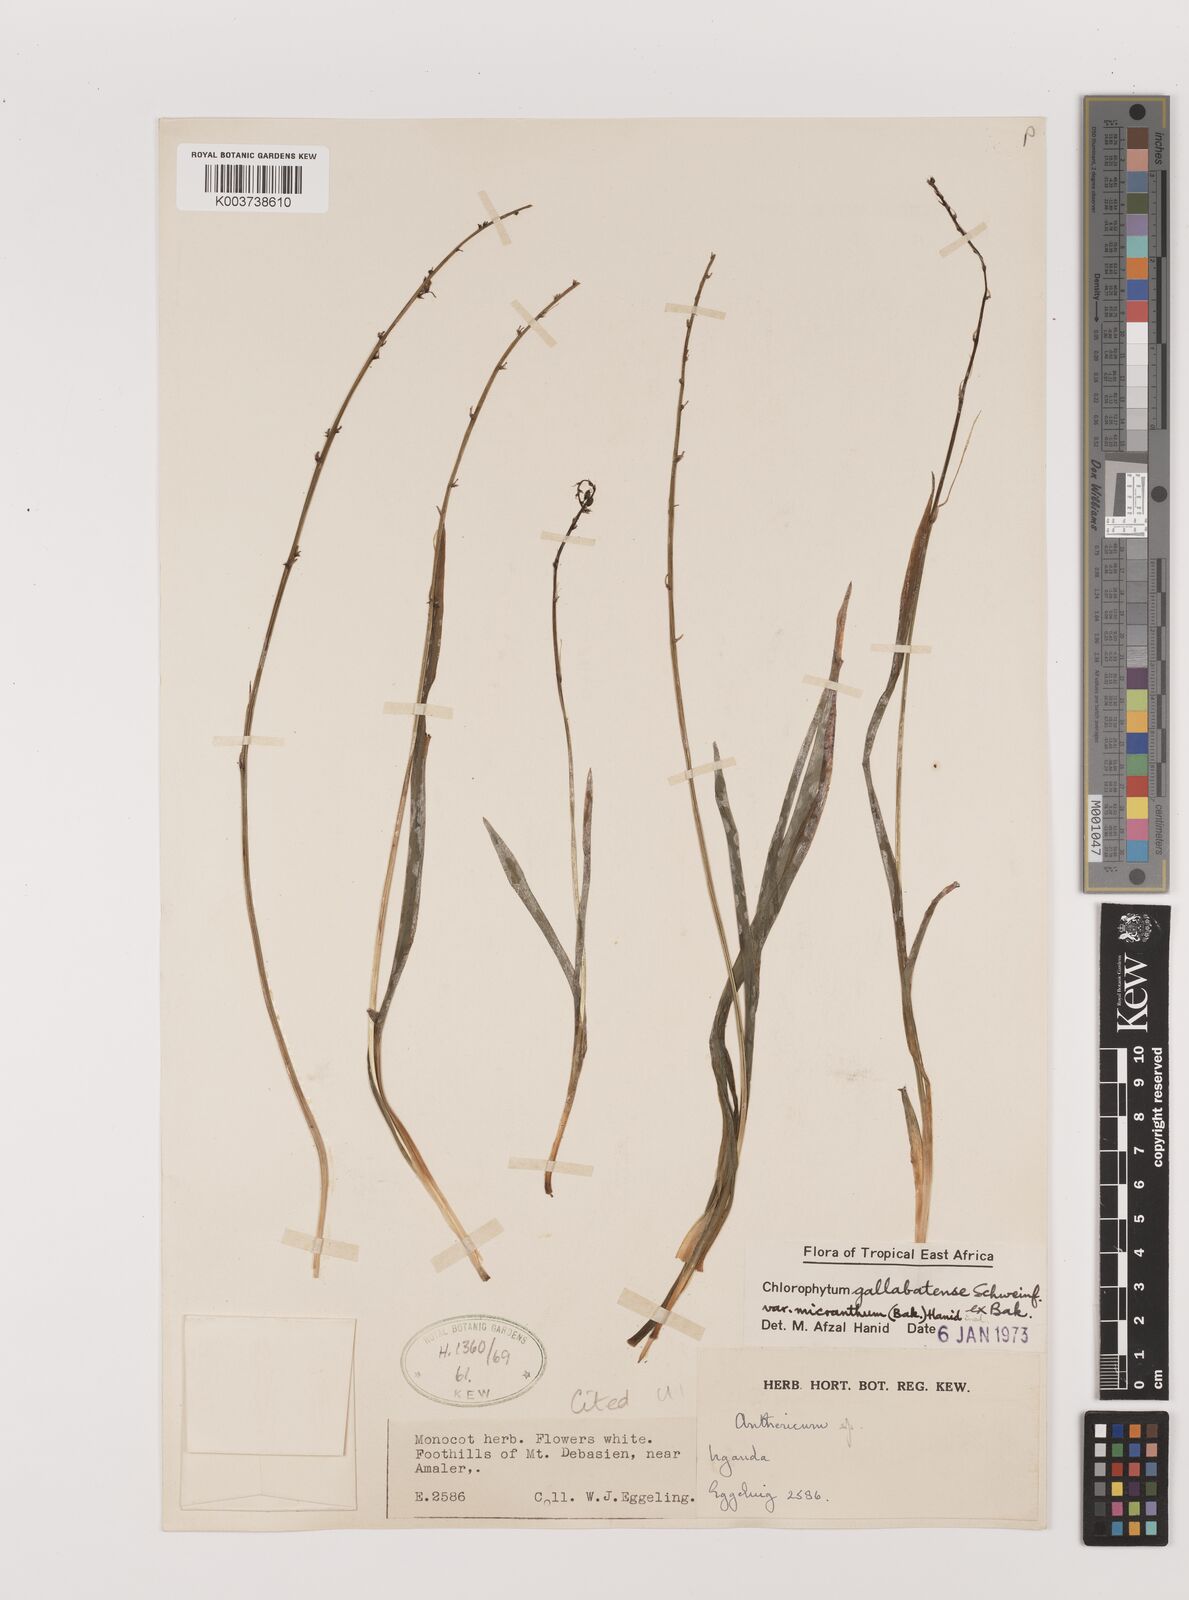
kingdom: Plantae
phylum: Tracheophyta
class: Liliopsida
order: Asparagales
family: Asparagaceae
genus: Chlorophytum
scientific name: Chlorophytum gallabatense
